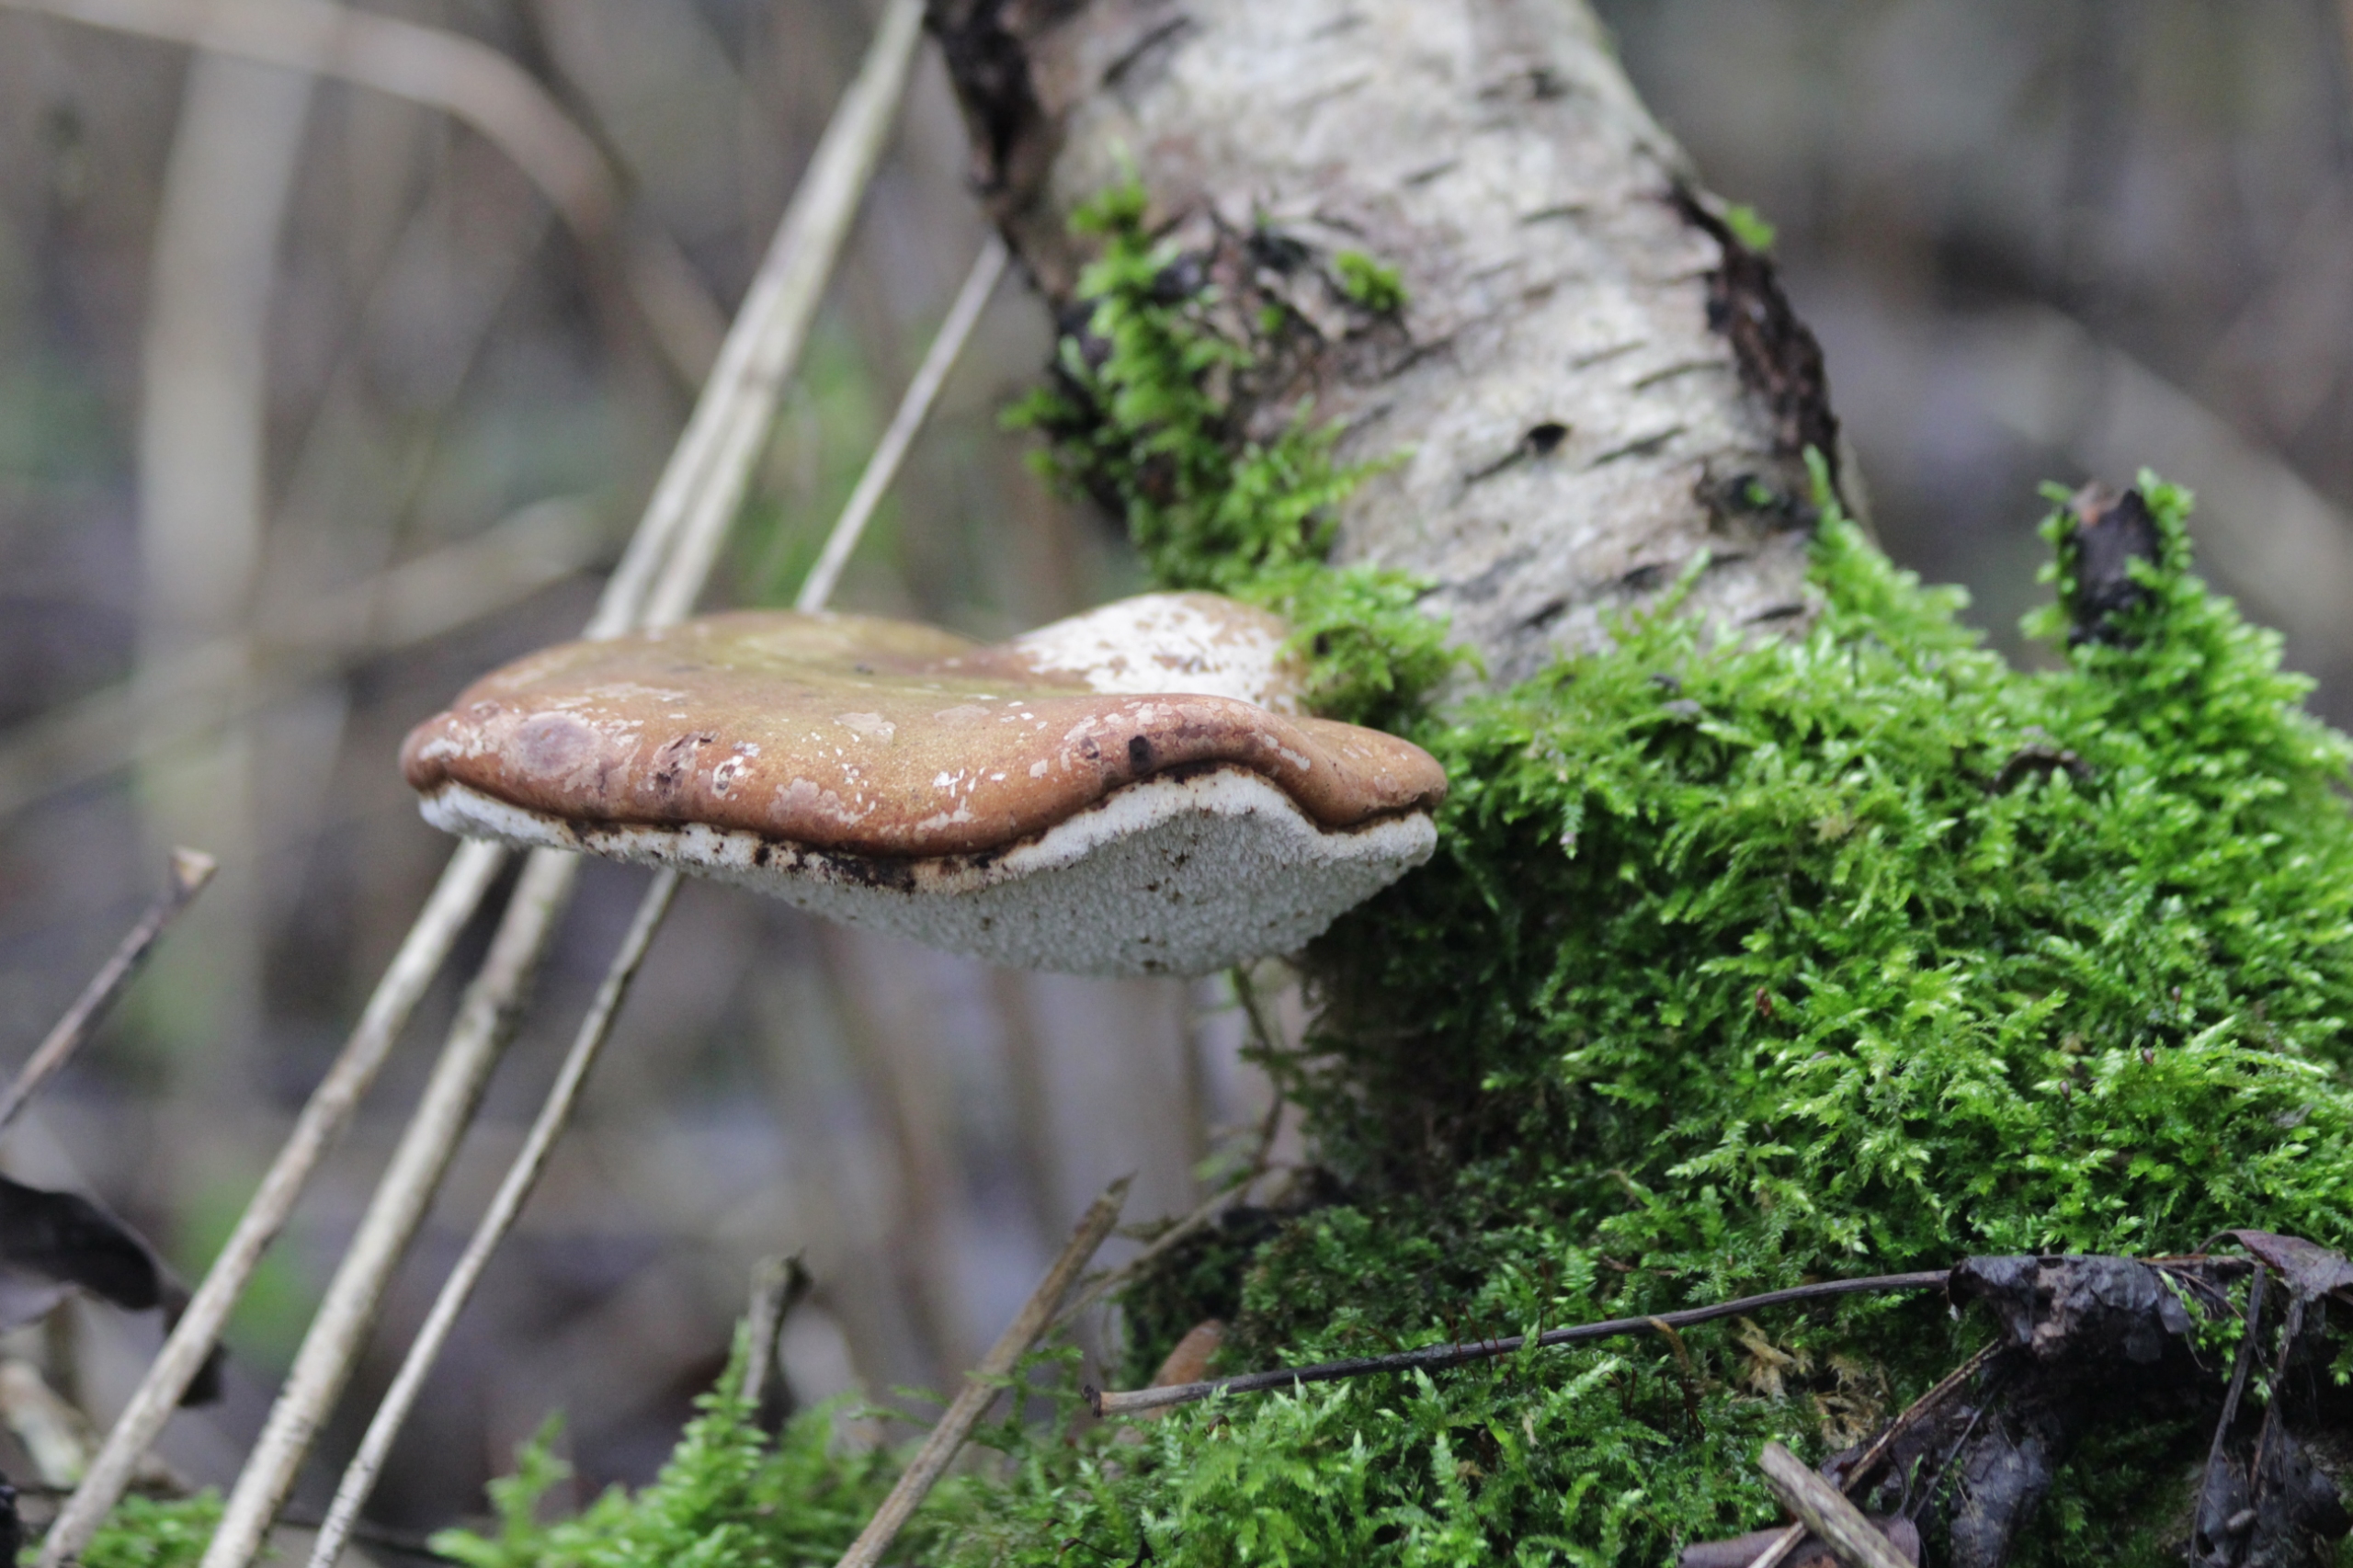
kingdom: Fungi
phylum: Basidiomycota
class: Agaricomycetes
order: Polyporales
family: Fomitopsidaceae
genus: Fomitopsis
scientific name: Fomitopsis betulina
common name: Birkeporesvamp
